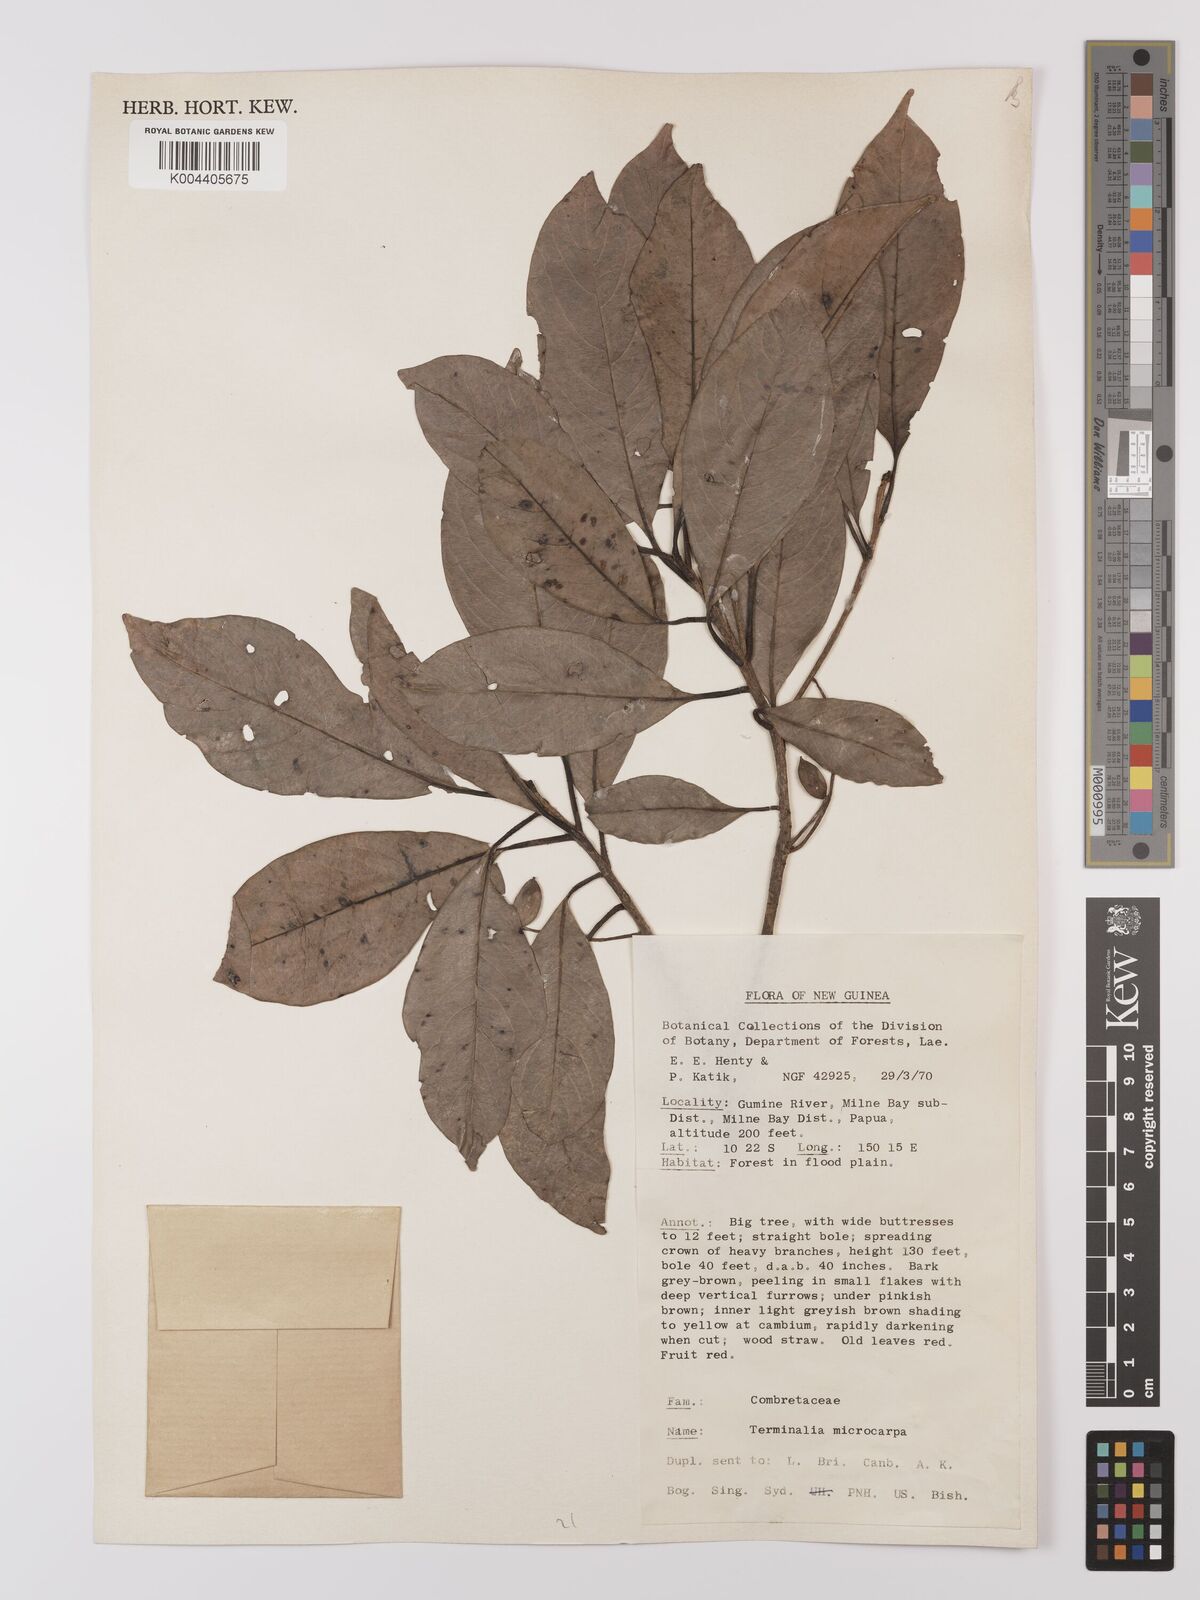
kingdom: Plantae
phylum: Tracheophyta
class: Magnoliopsida
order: Myrtales
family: Combretaceae
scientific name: Combretaceae
